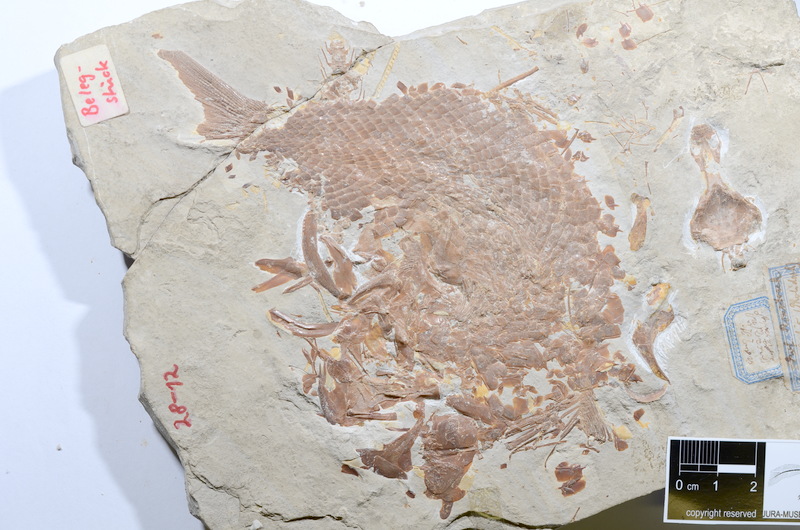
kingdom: Animalia
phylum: Chordata
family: Ankylophoridae
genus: Siemensichthys
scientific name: Siemensichthys macrocephalus
